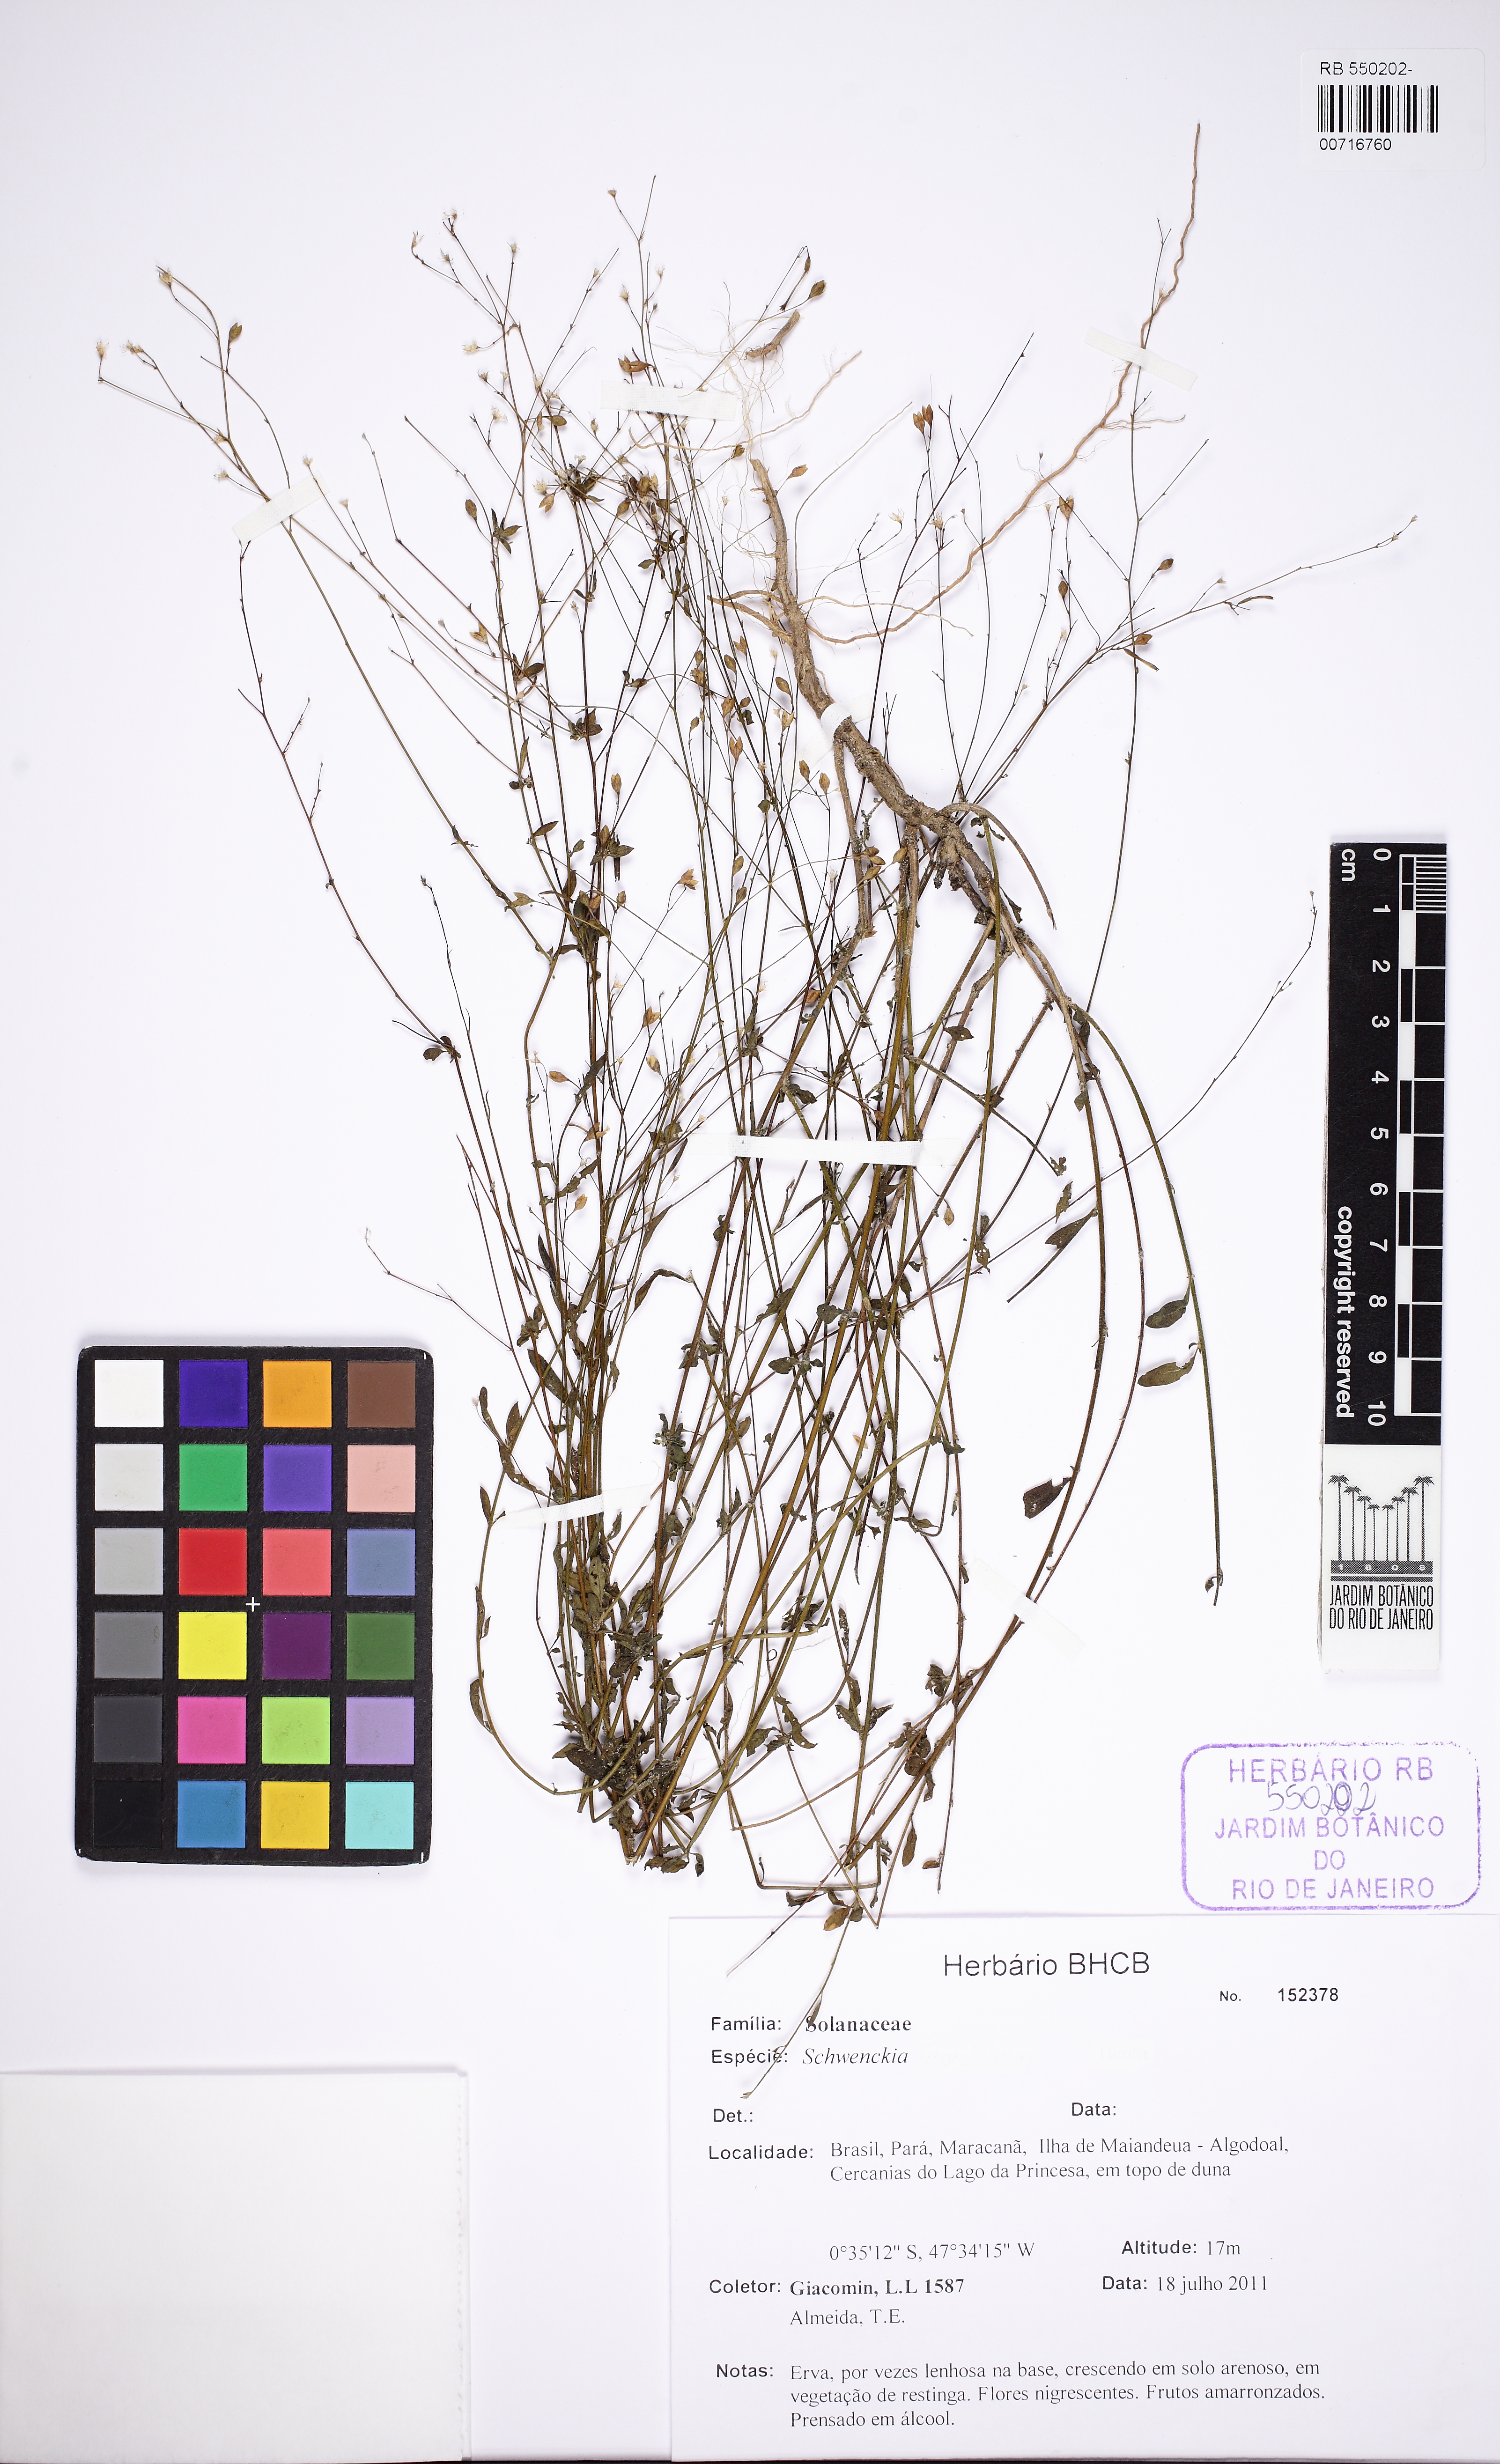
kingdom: Plantae
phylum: Tracheophyta
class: Magnoliopsida
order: Solanales
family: Solanaceae
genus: Schwenckia
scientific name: Schwenckia
